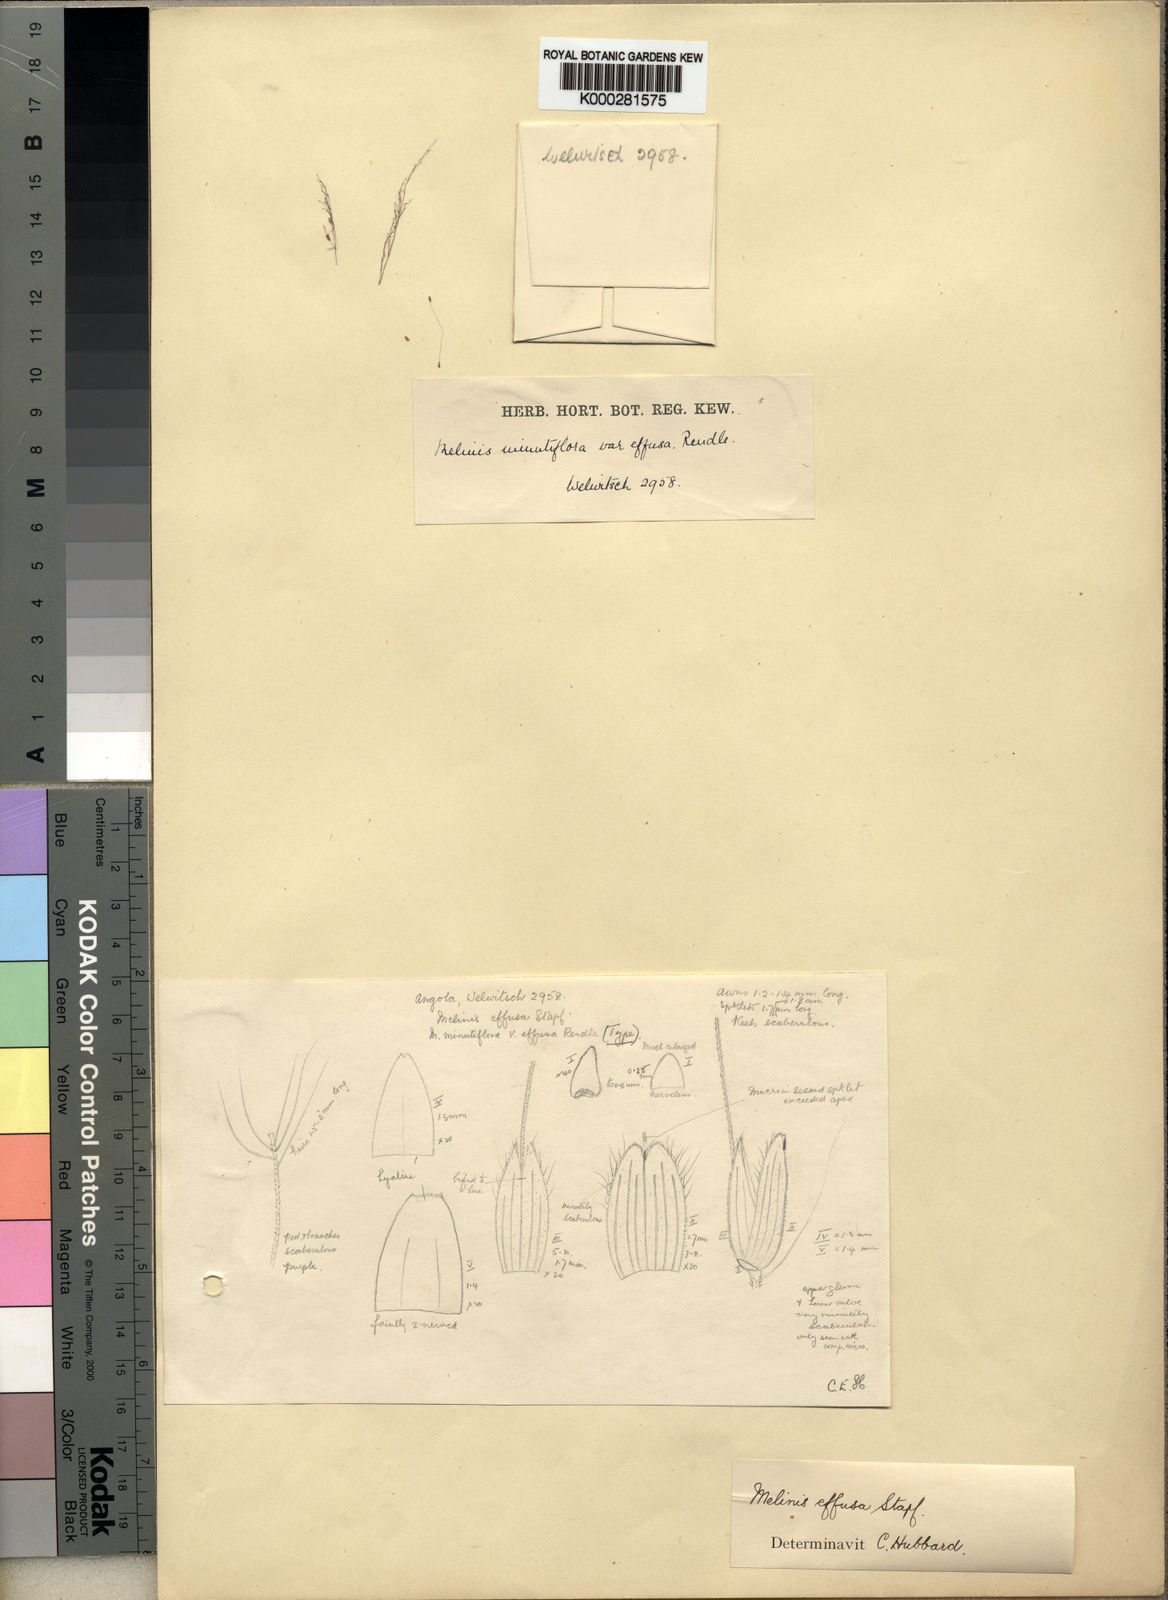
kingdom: Plantae
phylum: Tracheophyta
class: Liliopsida
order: Poales
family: Poaceae
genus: Melinis
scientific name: Melinis
